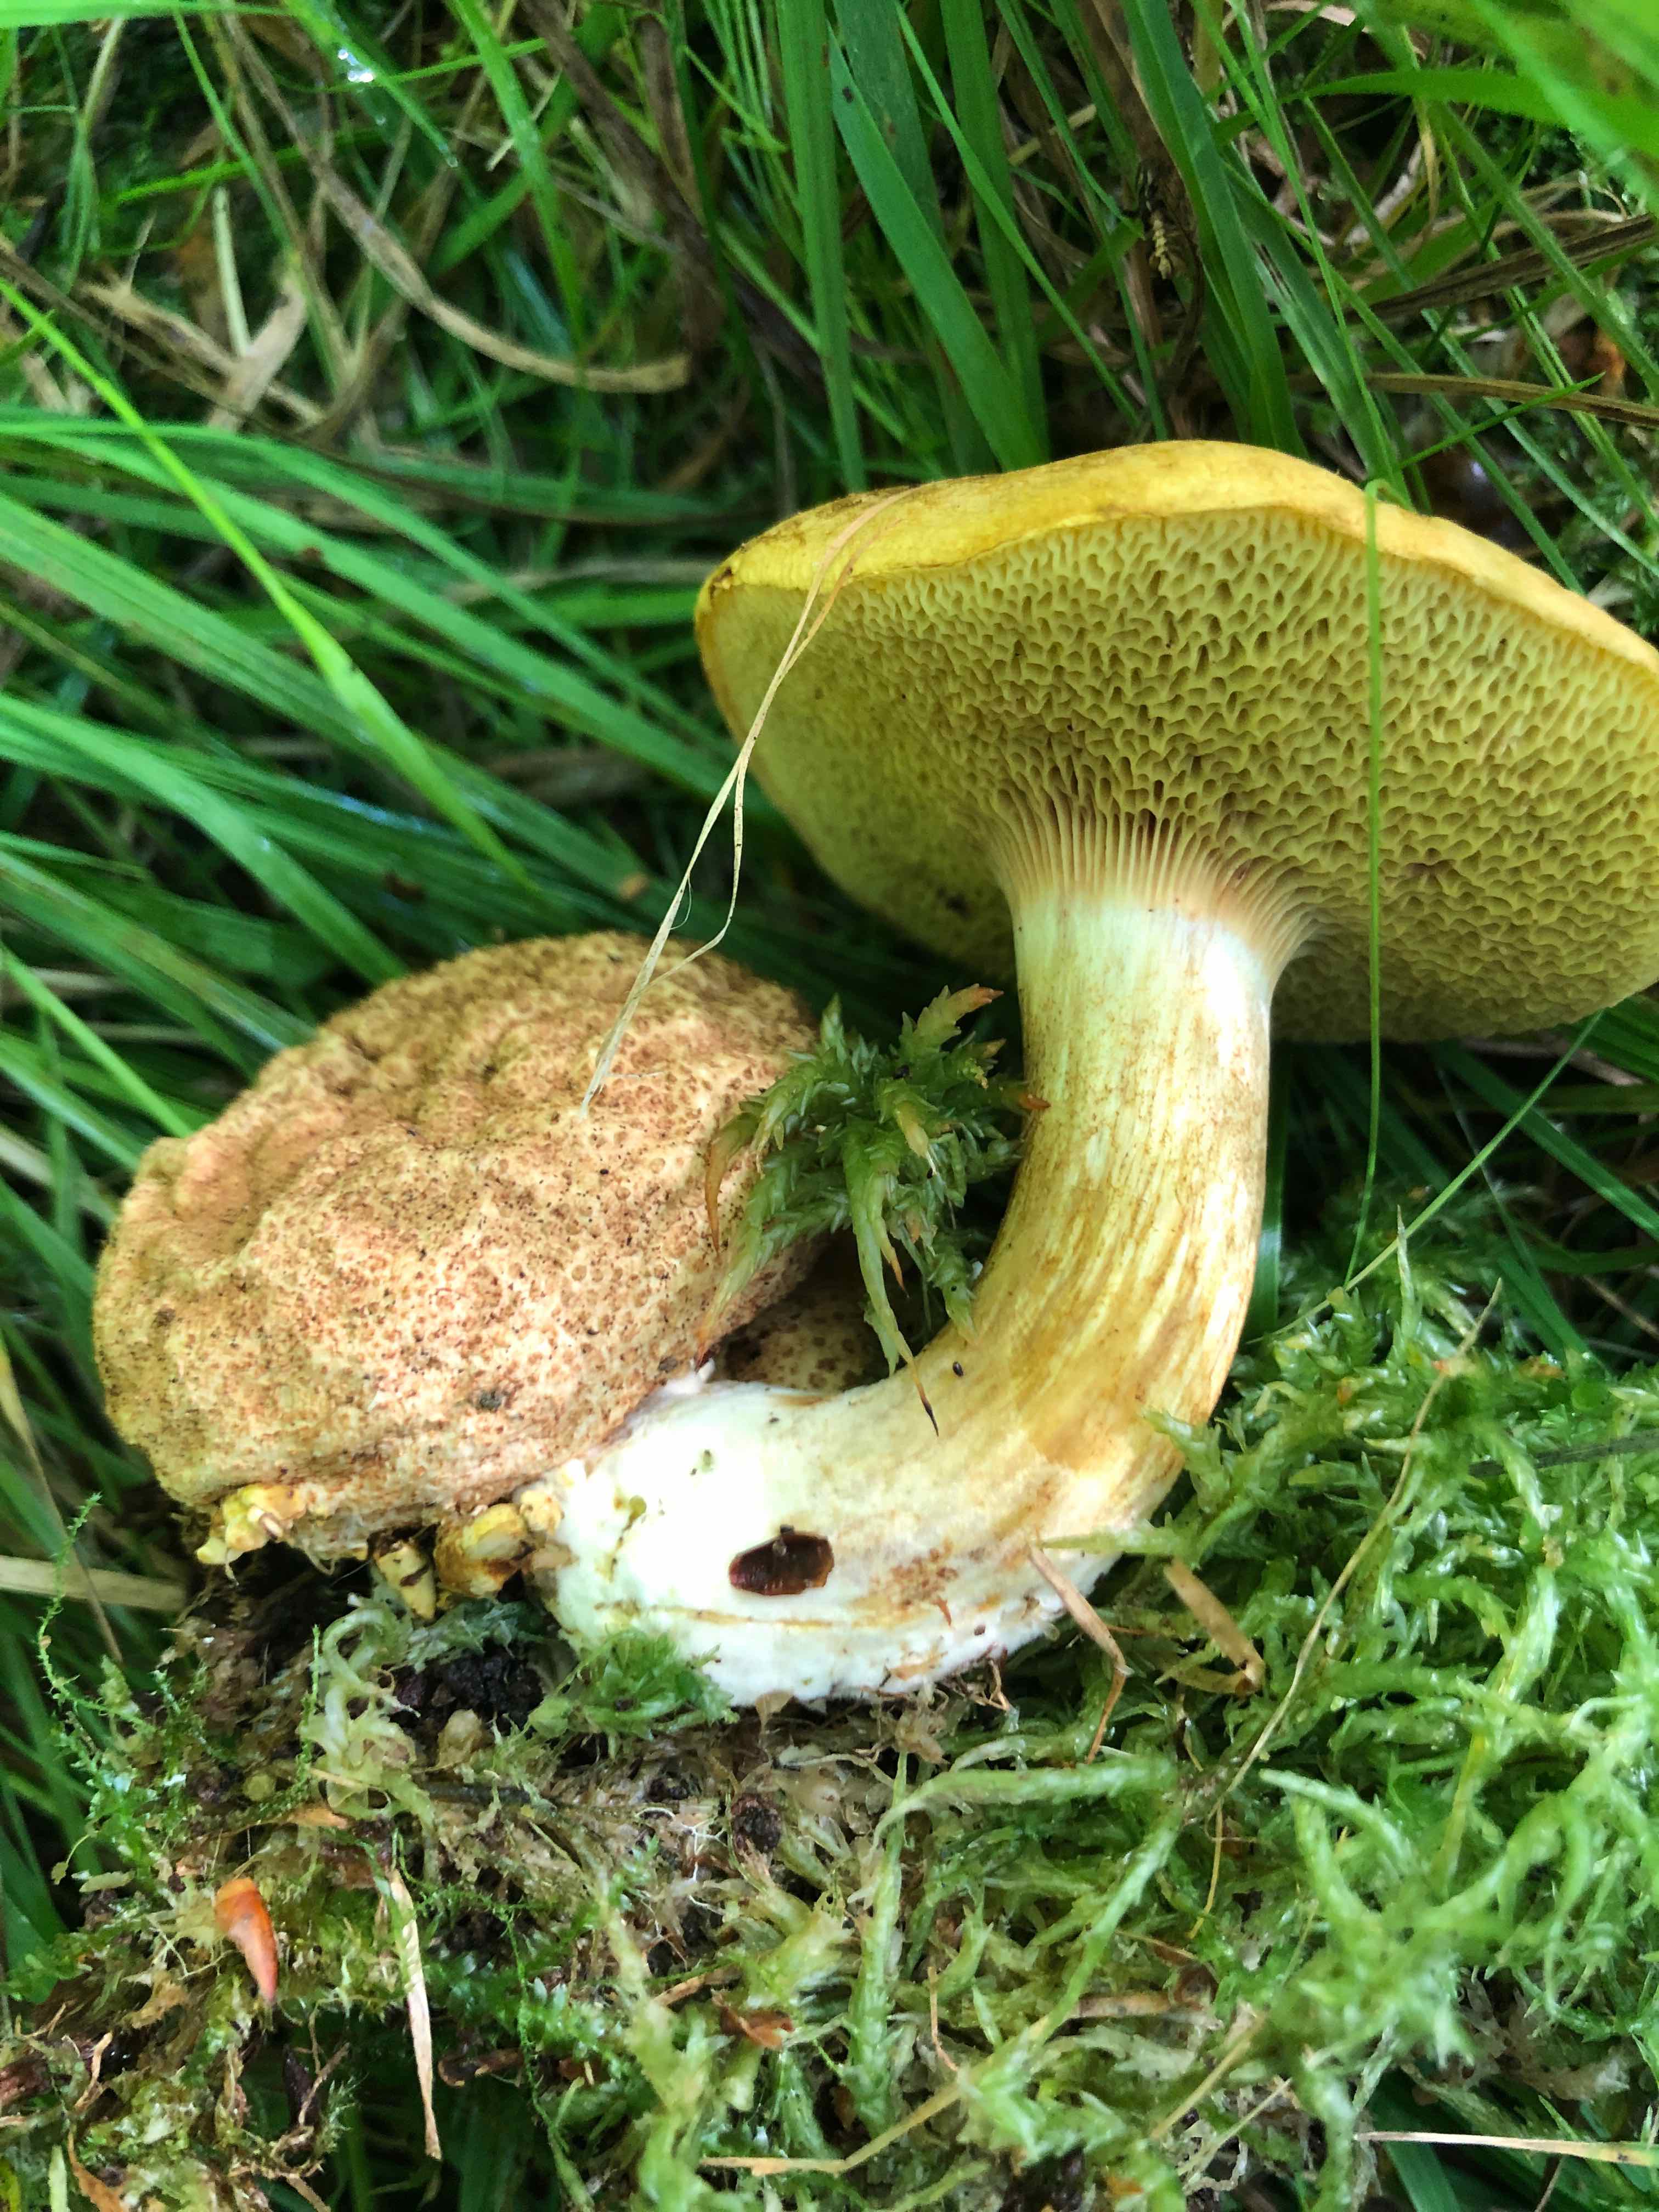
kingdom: Fungi
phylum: Basidiomycota
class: Agaricomycetes
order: Boletales
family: Boletaceae
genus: Pseudoboletus
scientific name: Pseudoboletus parasiticus
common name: snyltende rørhat
